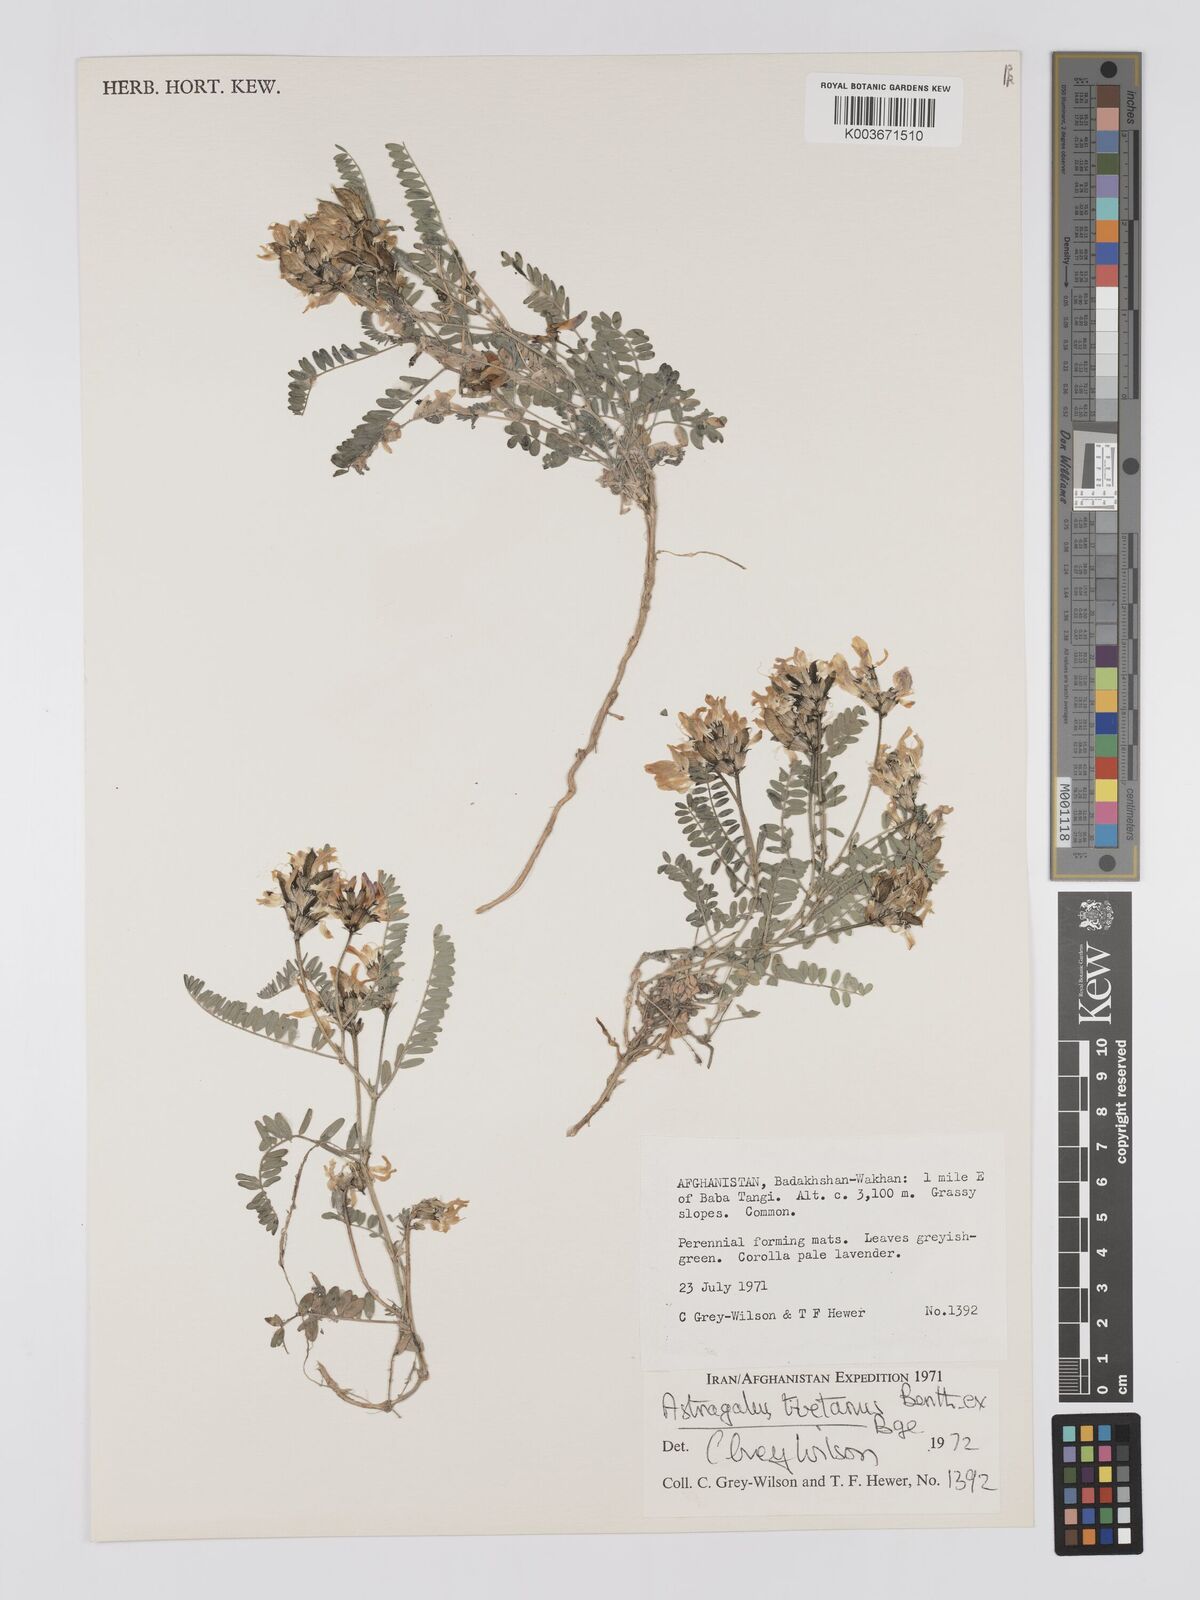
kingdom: Plantae
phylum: Tracheophyta
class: Magnoliopsida
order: Fabales
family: Fabaceae
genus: Astragalus
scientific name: Astragalus tibetanus
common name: Tibet milkvetch
